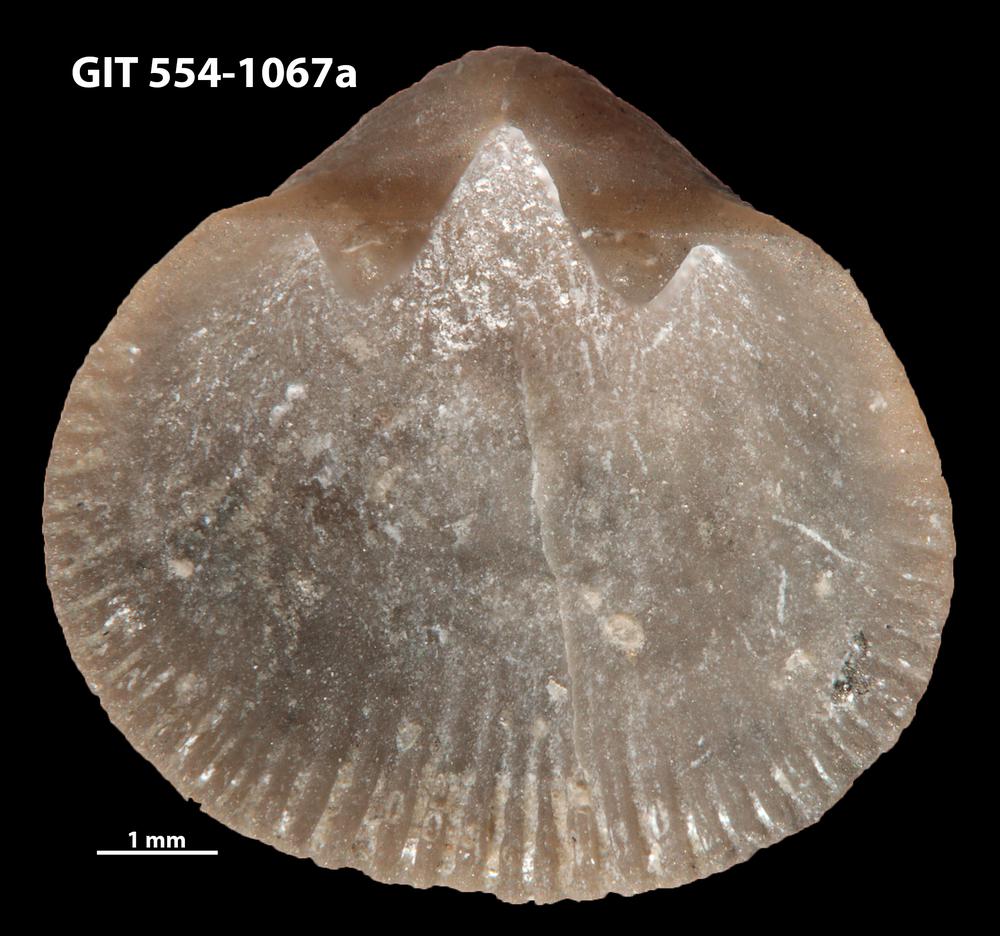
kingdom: Animalia
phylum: Brachiopoda
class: Rhynchonellata
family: Rhipidomellidae
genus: Mendacella
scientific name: Mendacella circularis
